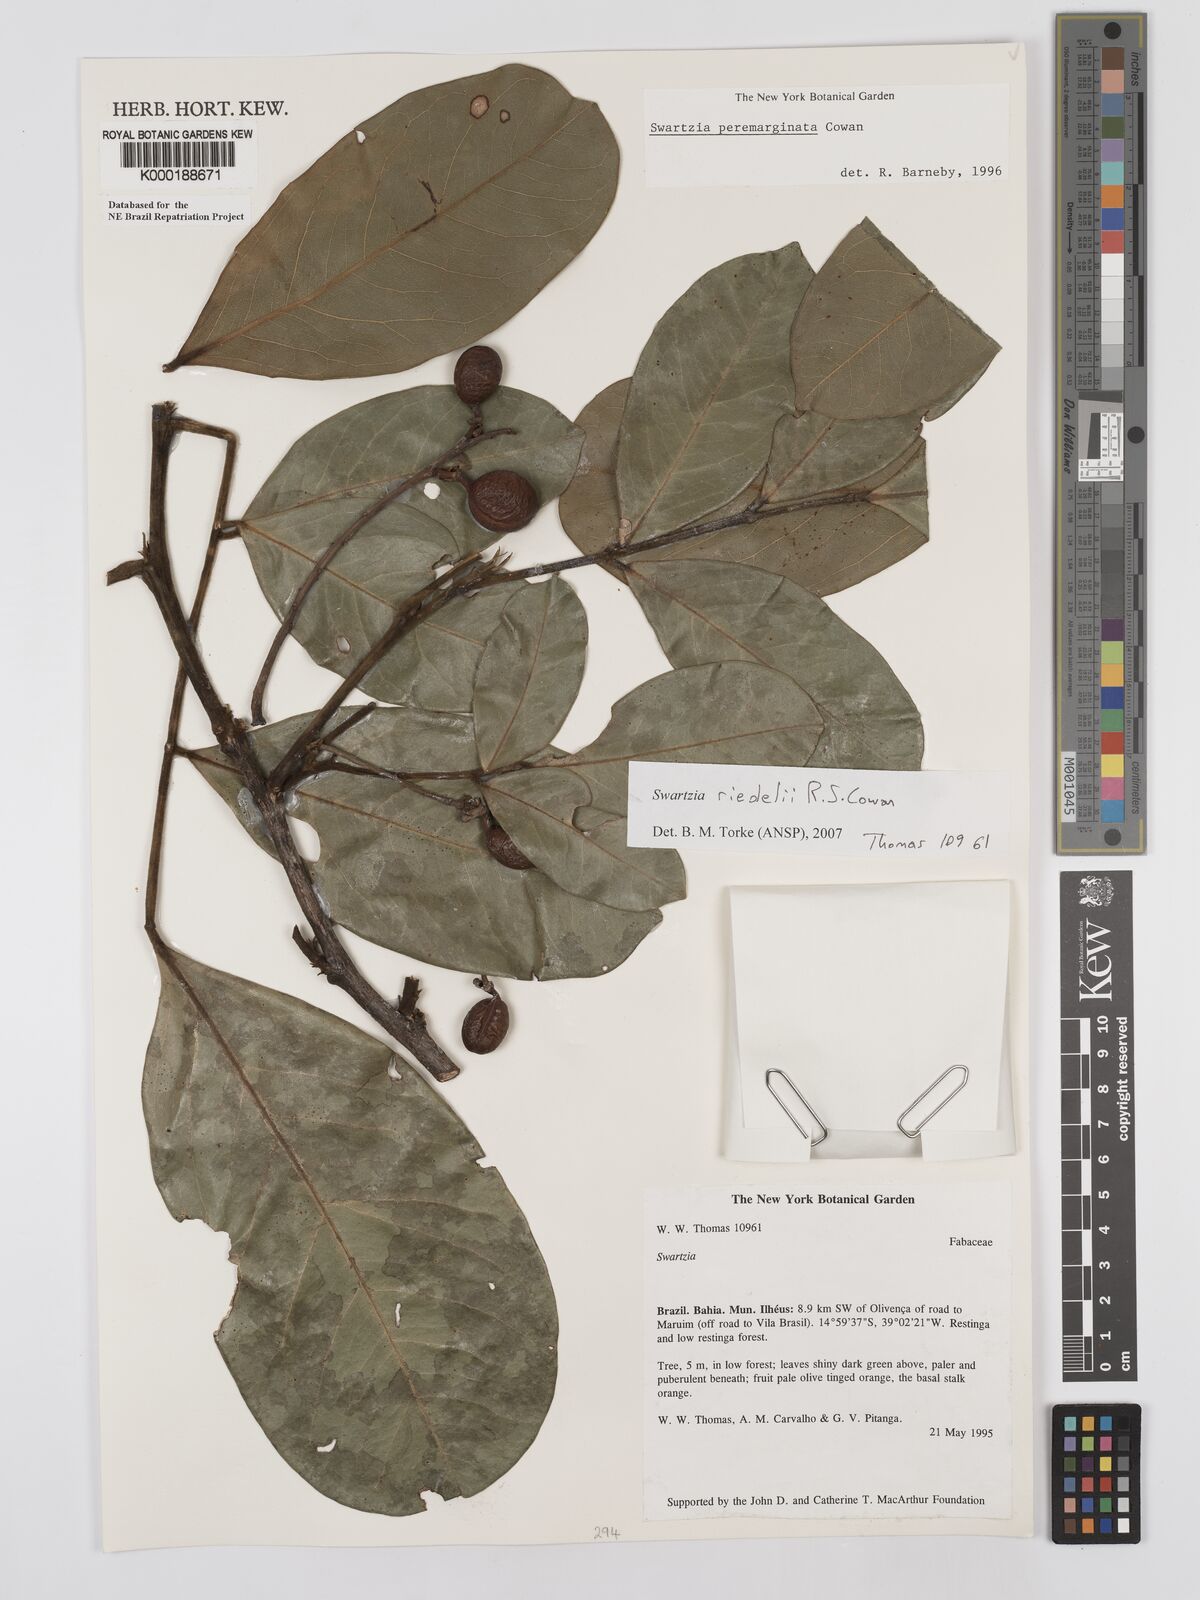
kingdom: Plantae
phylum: Tracheophyta
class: Magnoliopsida
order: Fabales
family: Fabaceae
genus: Swartzia
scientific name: Swartzia riedelii
